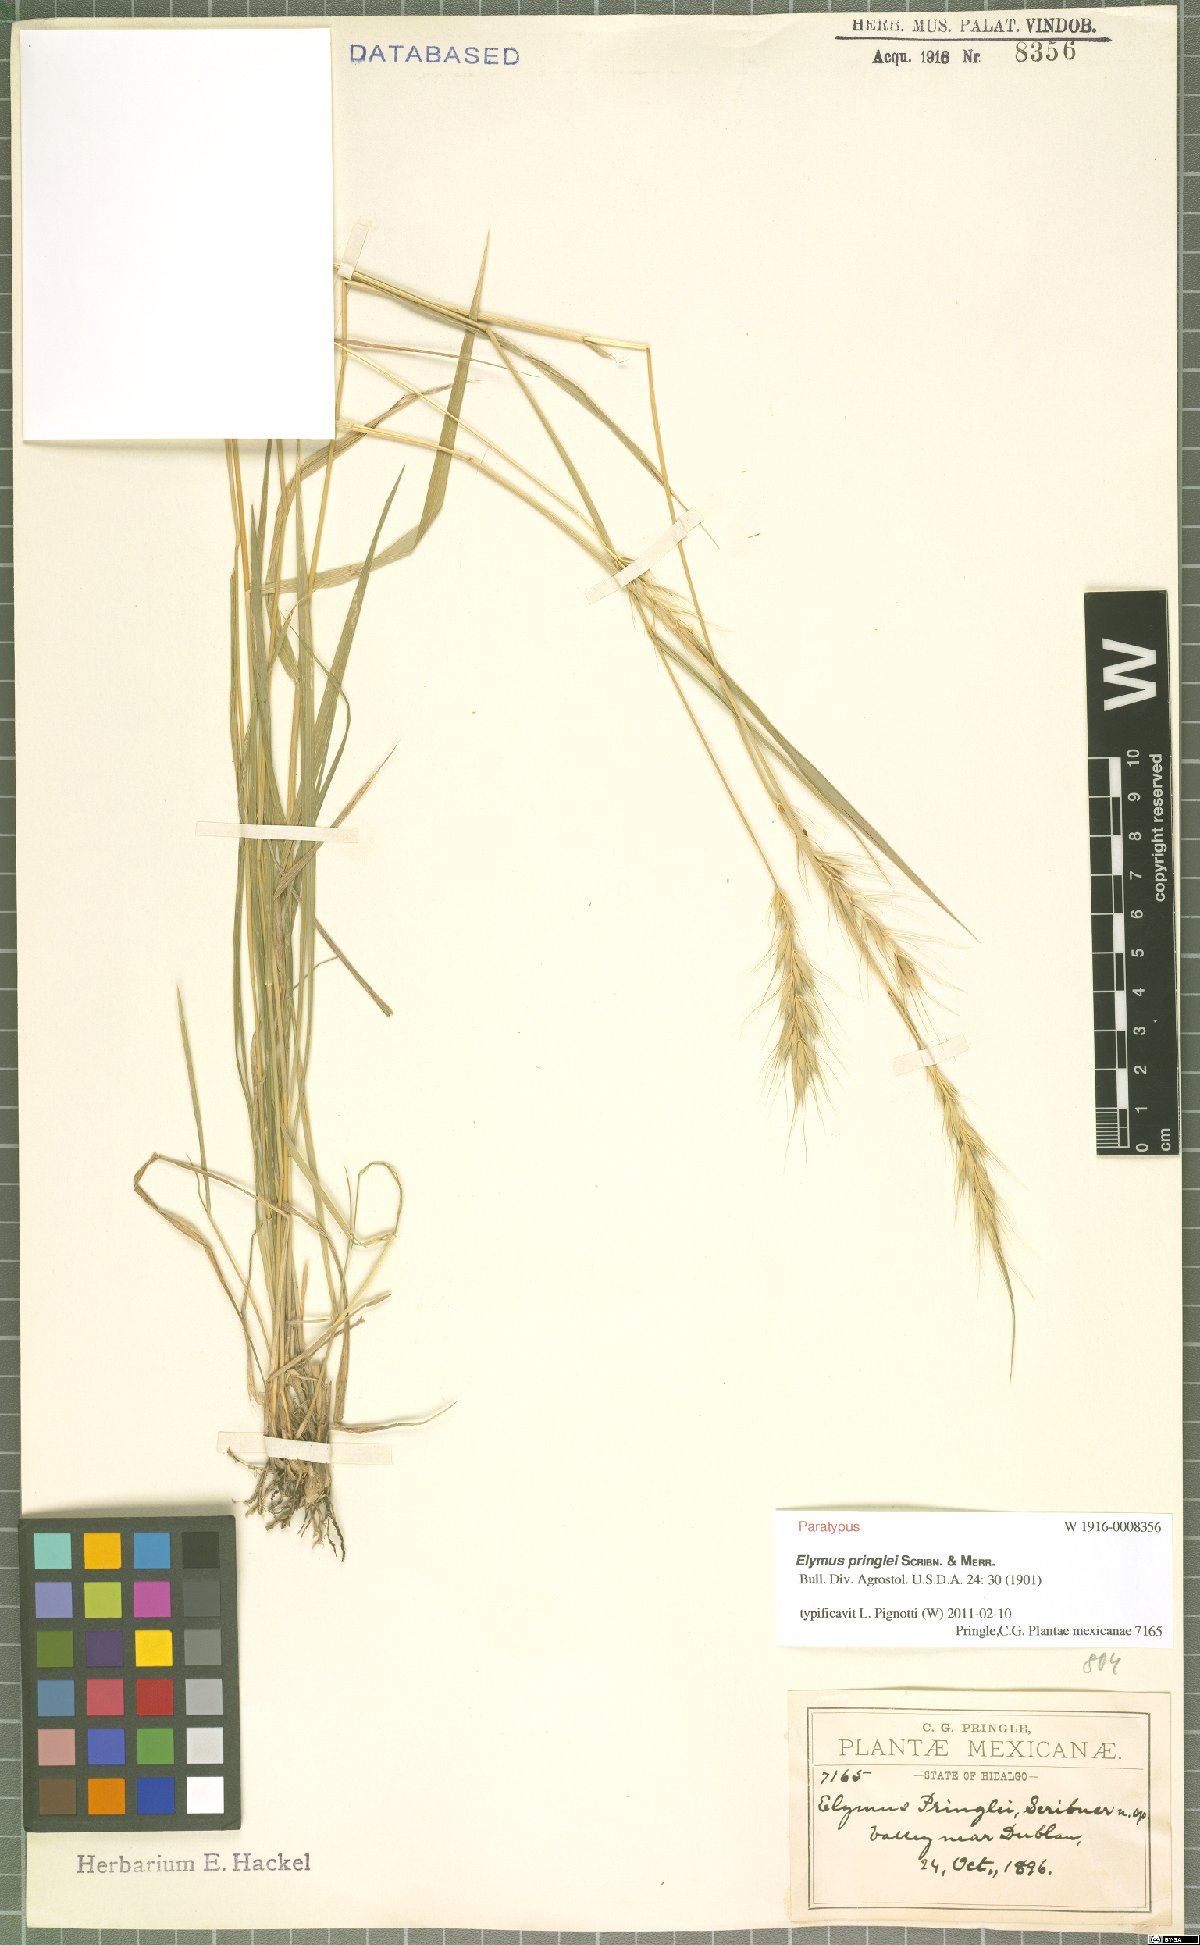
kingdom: Plantae
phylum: Tracheophyta
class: Liliopsida
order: Poales
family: Poaceae
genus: Elymus
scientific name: Elymus violaceus
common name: Arctic wheatgrass
